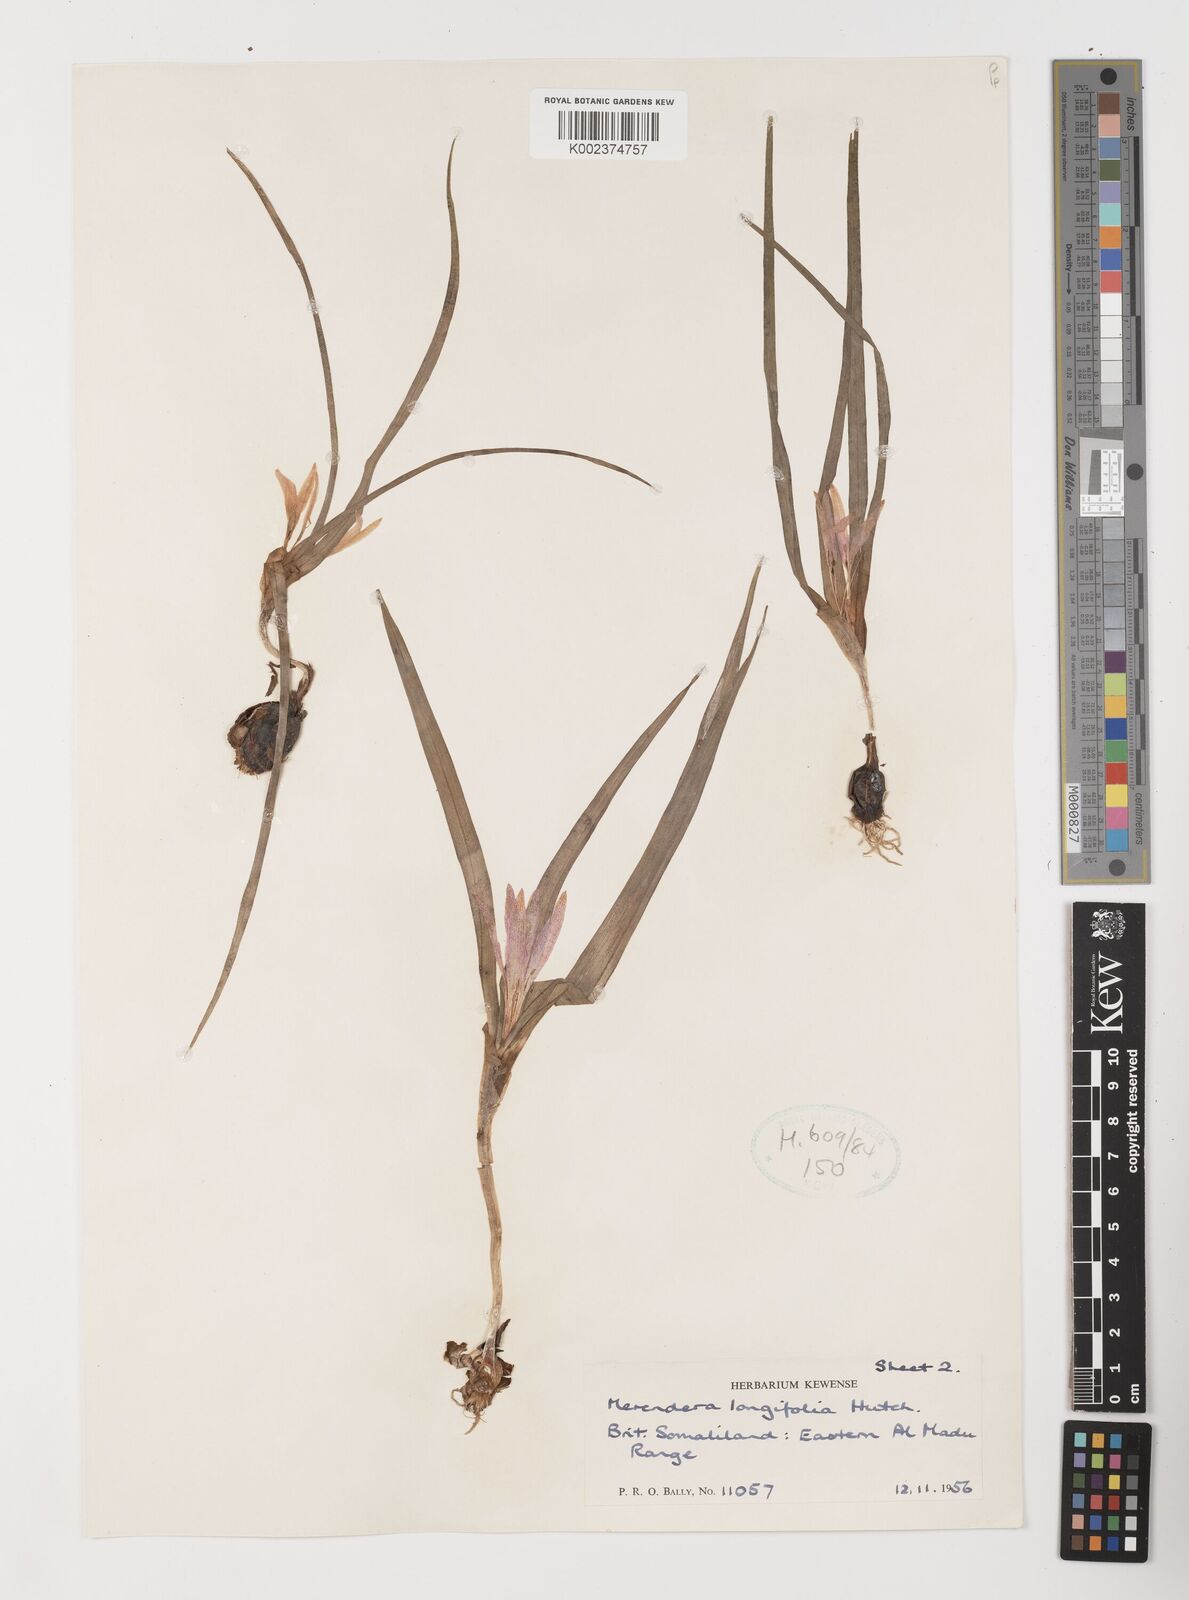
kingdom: Plantae
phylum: Tracheophyta
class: Liliopsida
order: Liliales
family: Colchicaceae
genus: Colchicum
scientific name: Colchicum longifolium
